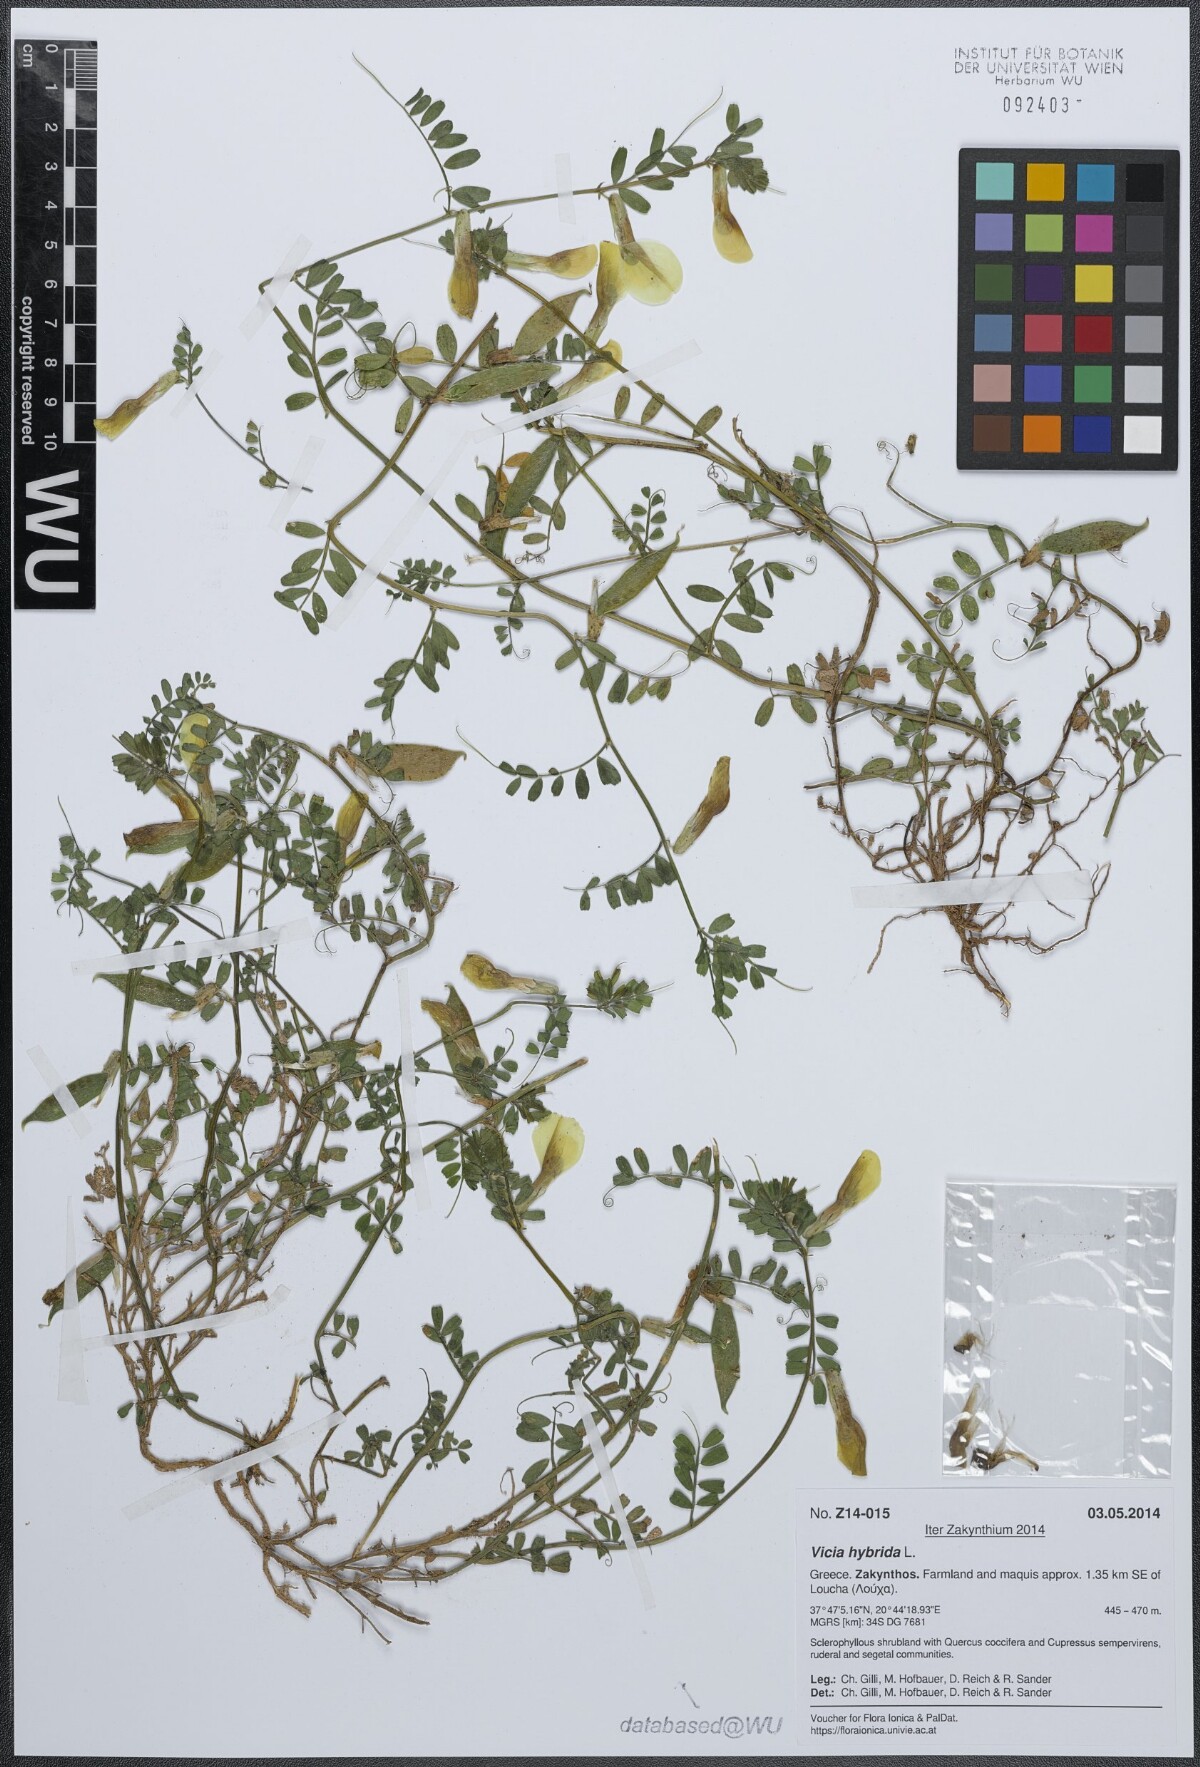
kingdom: Plantae
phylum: Tracheophyta
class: Magnoliopsida
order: Fabales
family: Fabaceae
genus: Vicia
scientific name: Vicia hybrida
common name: Hairy yellow vetch
